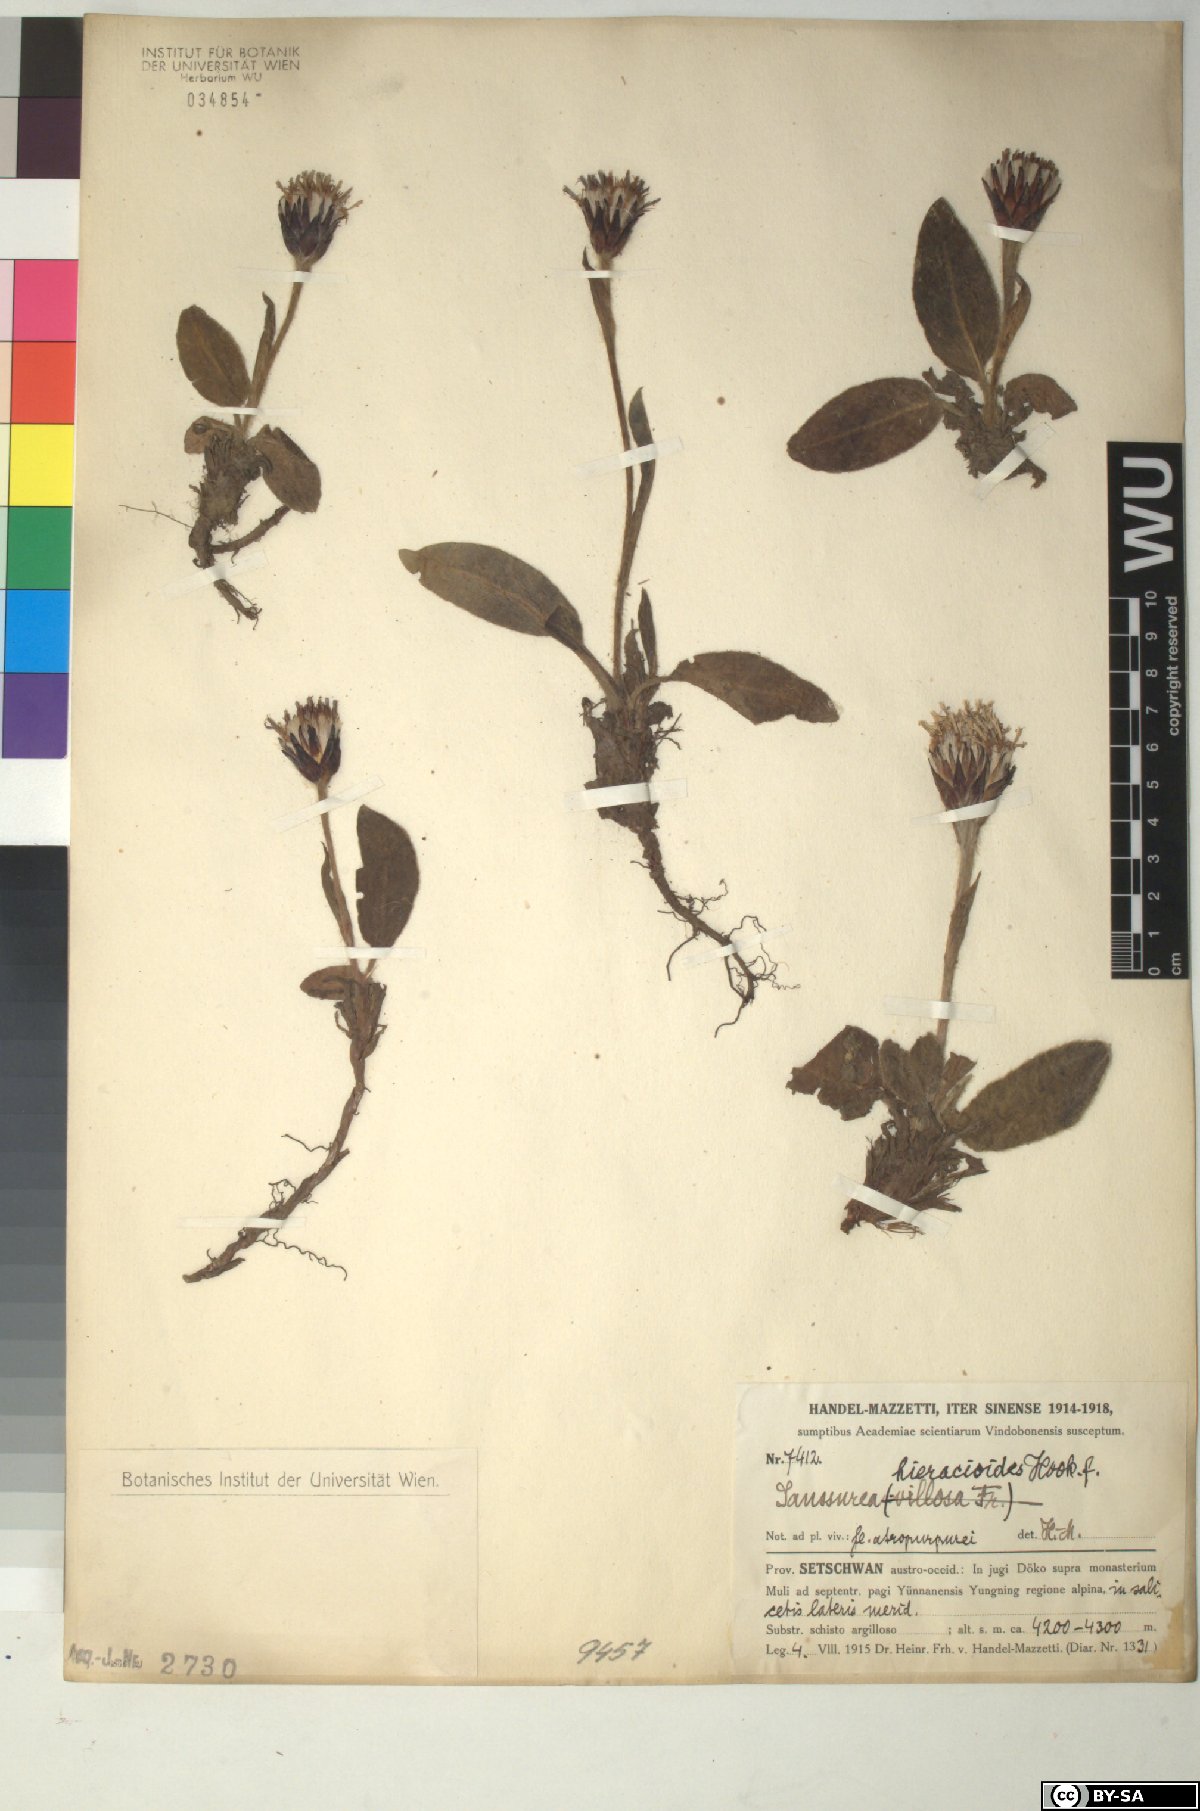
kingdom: Plantae
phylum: Tracheophyta
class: Magnoliopsida
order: Asterales
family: Asteraceae
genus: Saussurea
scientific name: Saussurea hieracioides
